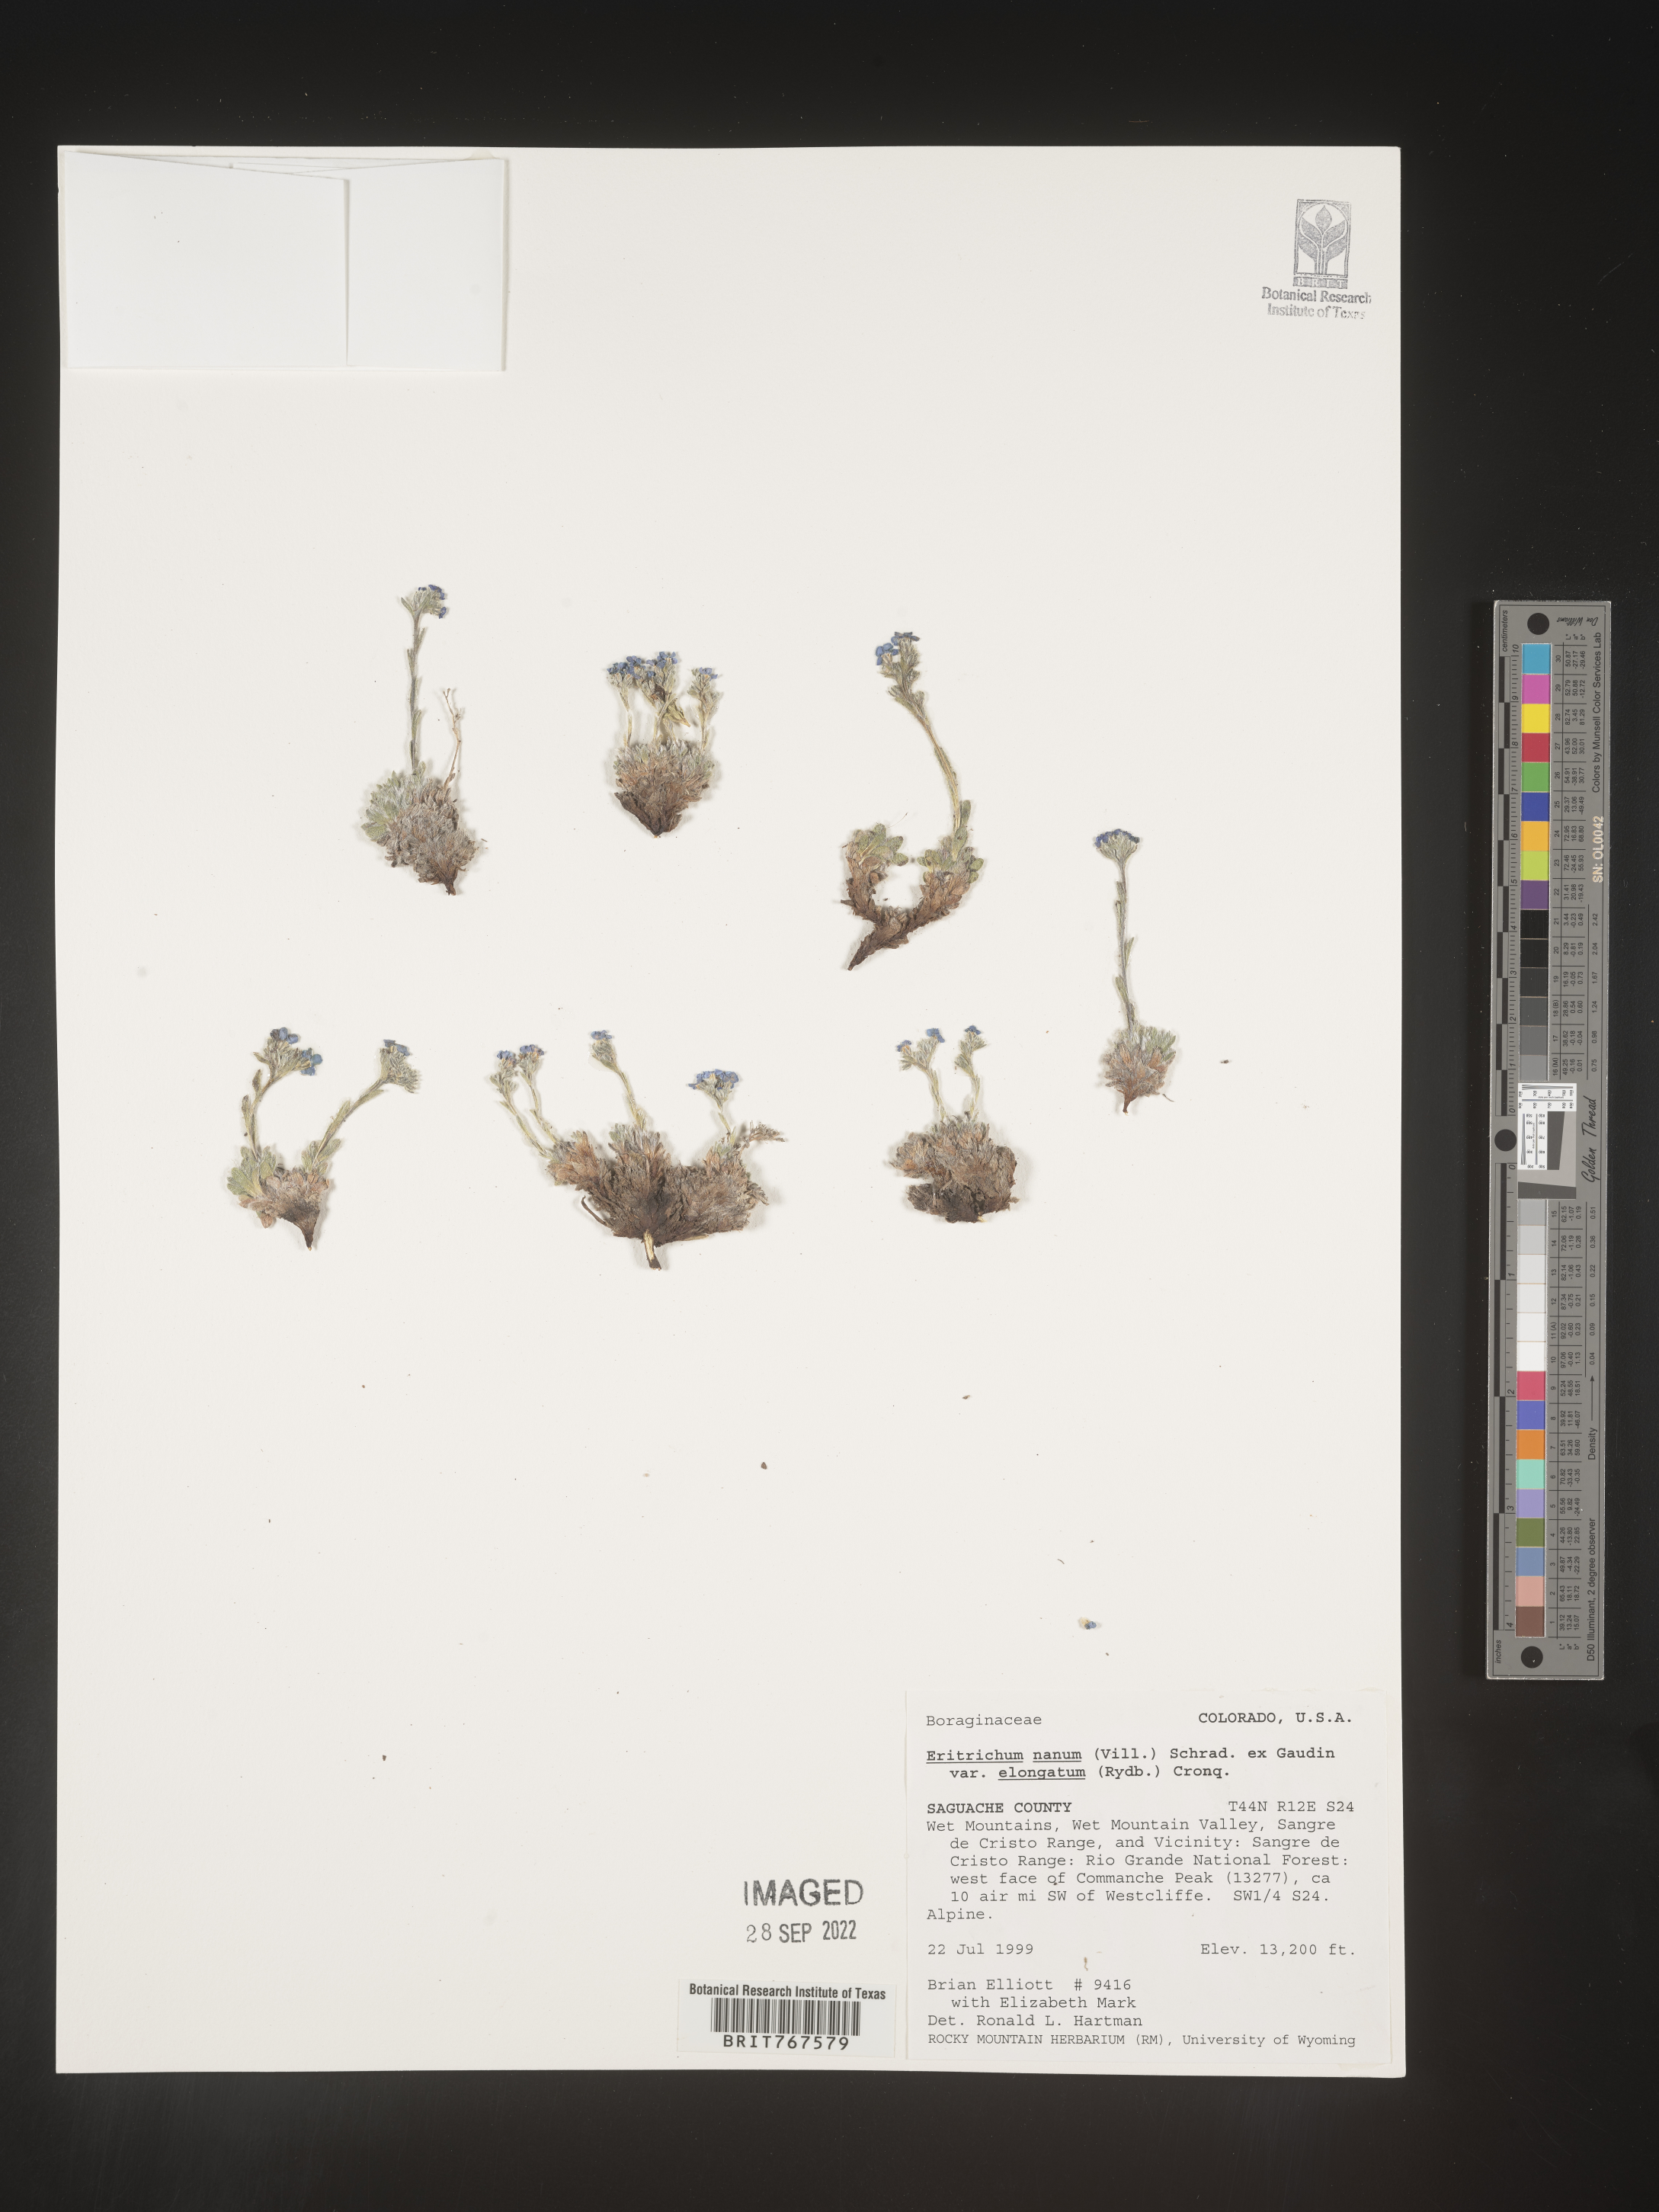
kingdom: Plantae
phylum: Tracheophyta
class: Magnoliopsida
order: Boraginales
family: Boraginaceae
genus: Eritrichium
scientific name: Eritrichium
